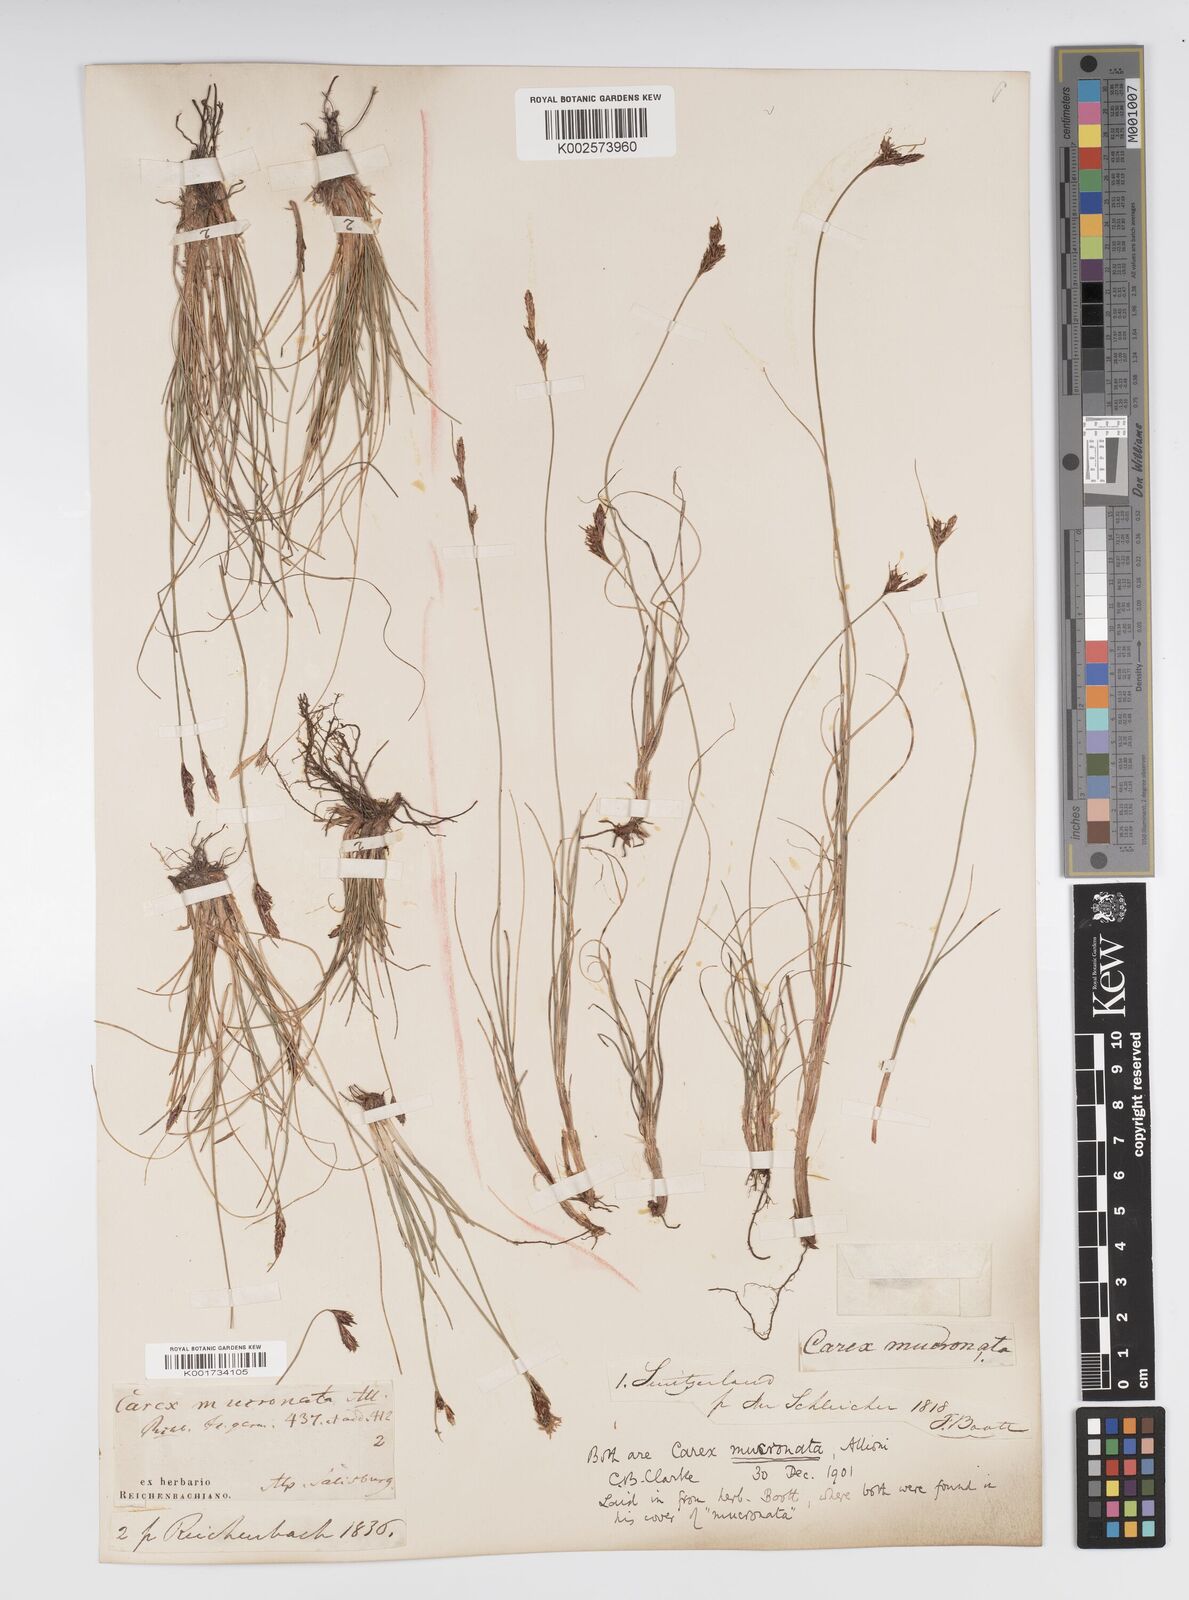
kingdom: Plantae
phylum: Tracheophyta
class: Liliopsida
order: Poales
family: Cyperaceae
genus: Carex
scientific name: Carex mucronata
